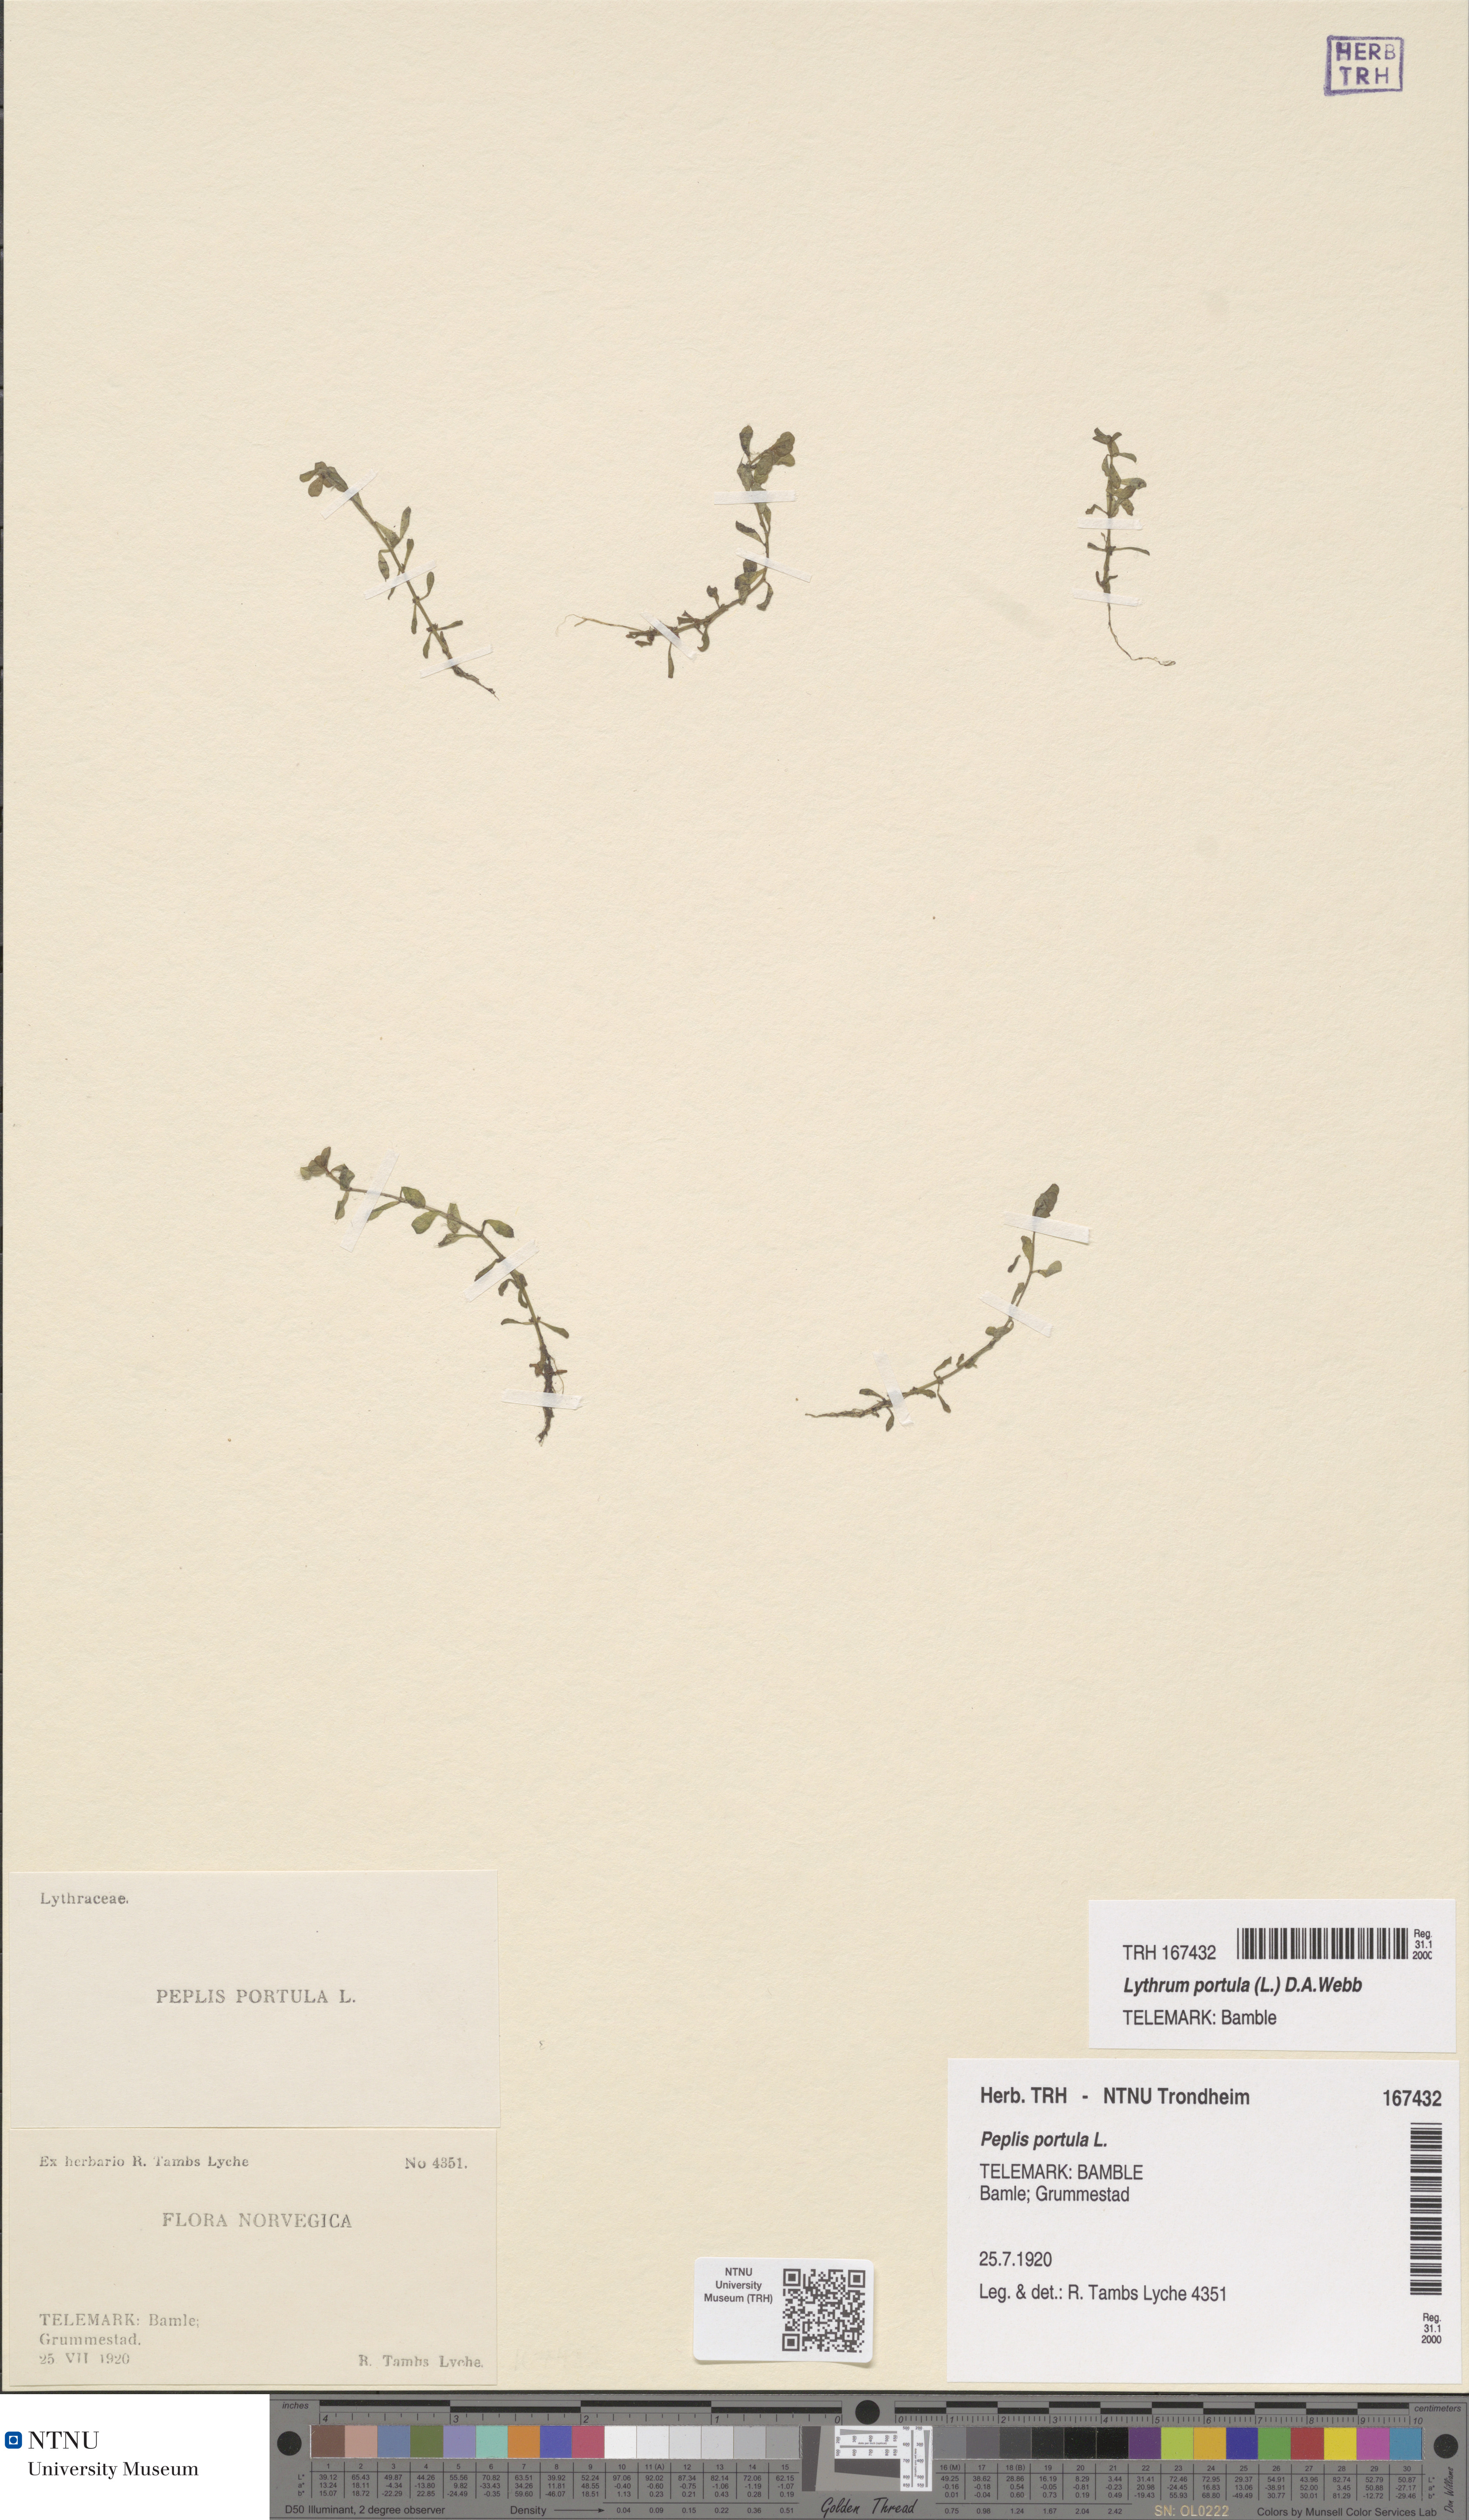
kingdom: Plantae
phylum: Tracheophyta
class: Magnoliopsida
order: Myrtales
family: Lythraceae
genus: Lythrum
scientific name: Lythrum portula
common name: Water purslane
